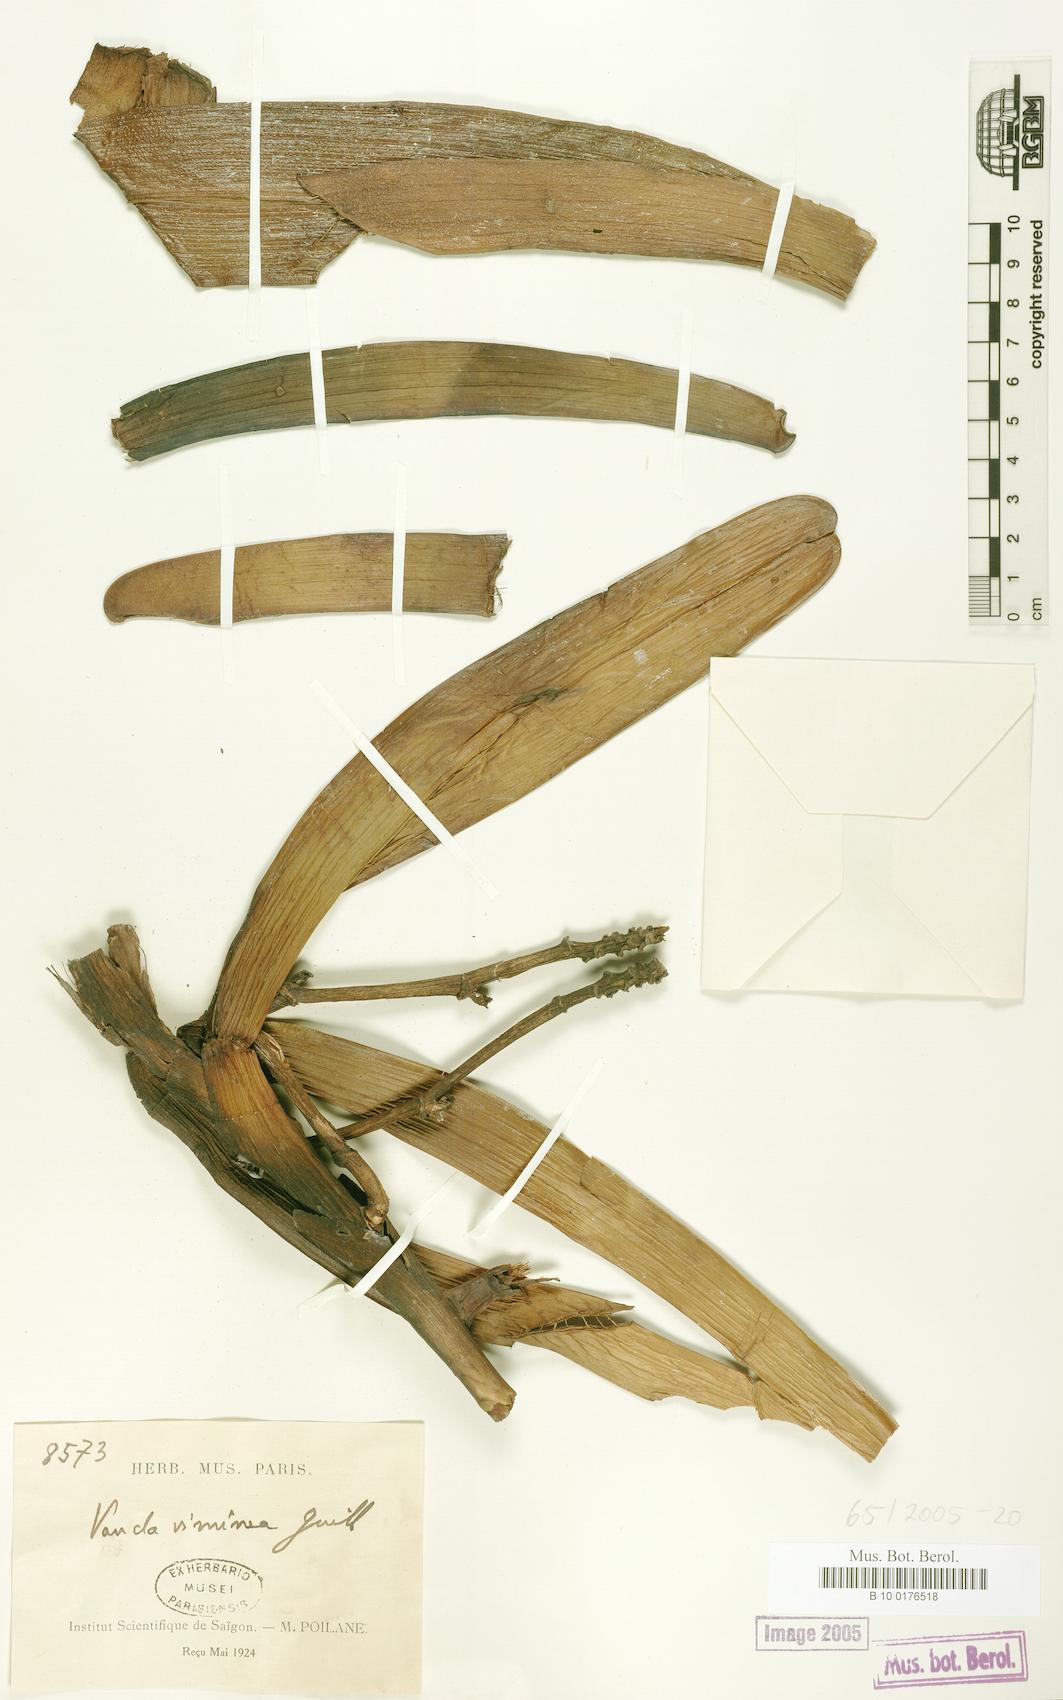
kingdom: Plantae
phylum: Tracheophyta
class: Liliopsida
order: Asparagales
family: Orchidaceae
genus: Acampe
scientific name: Acampe pachyglossa
